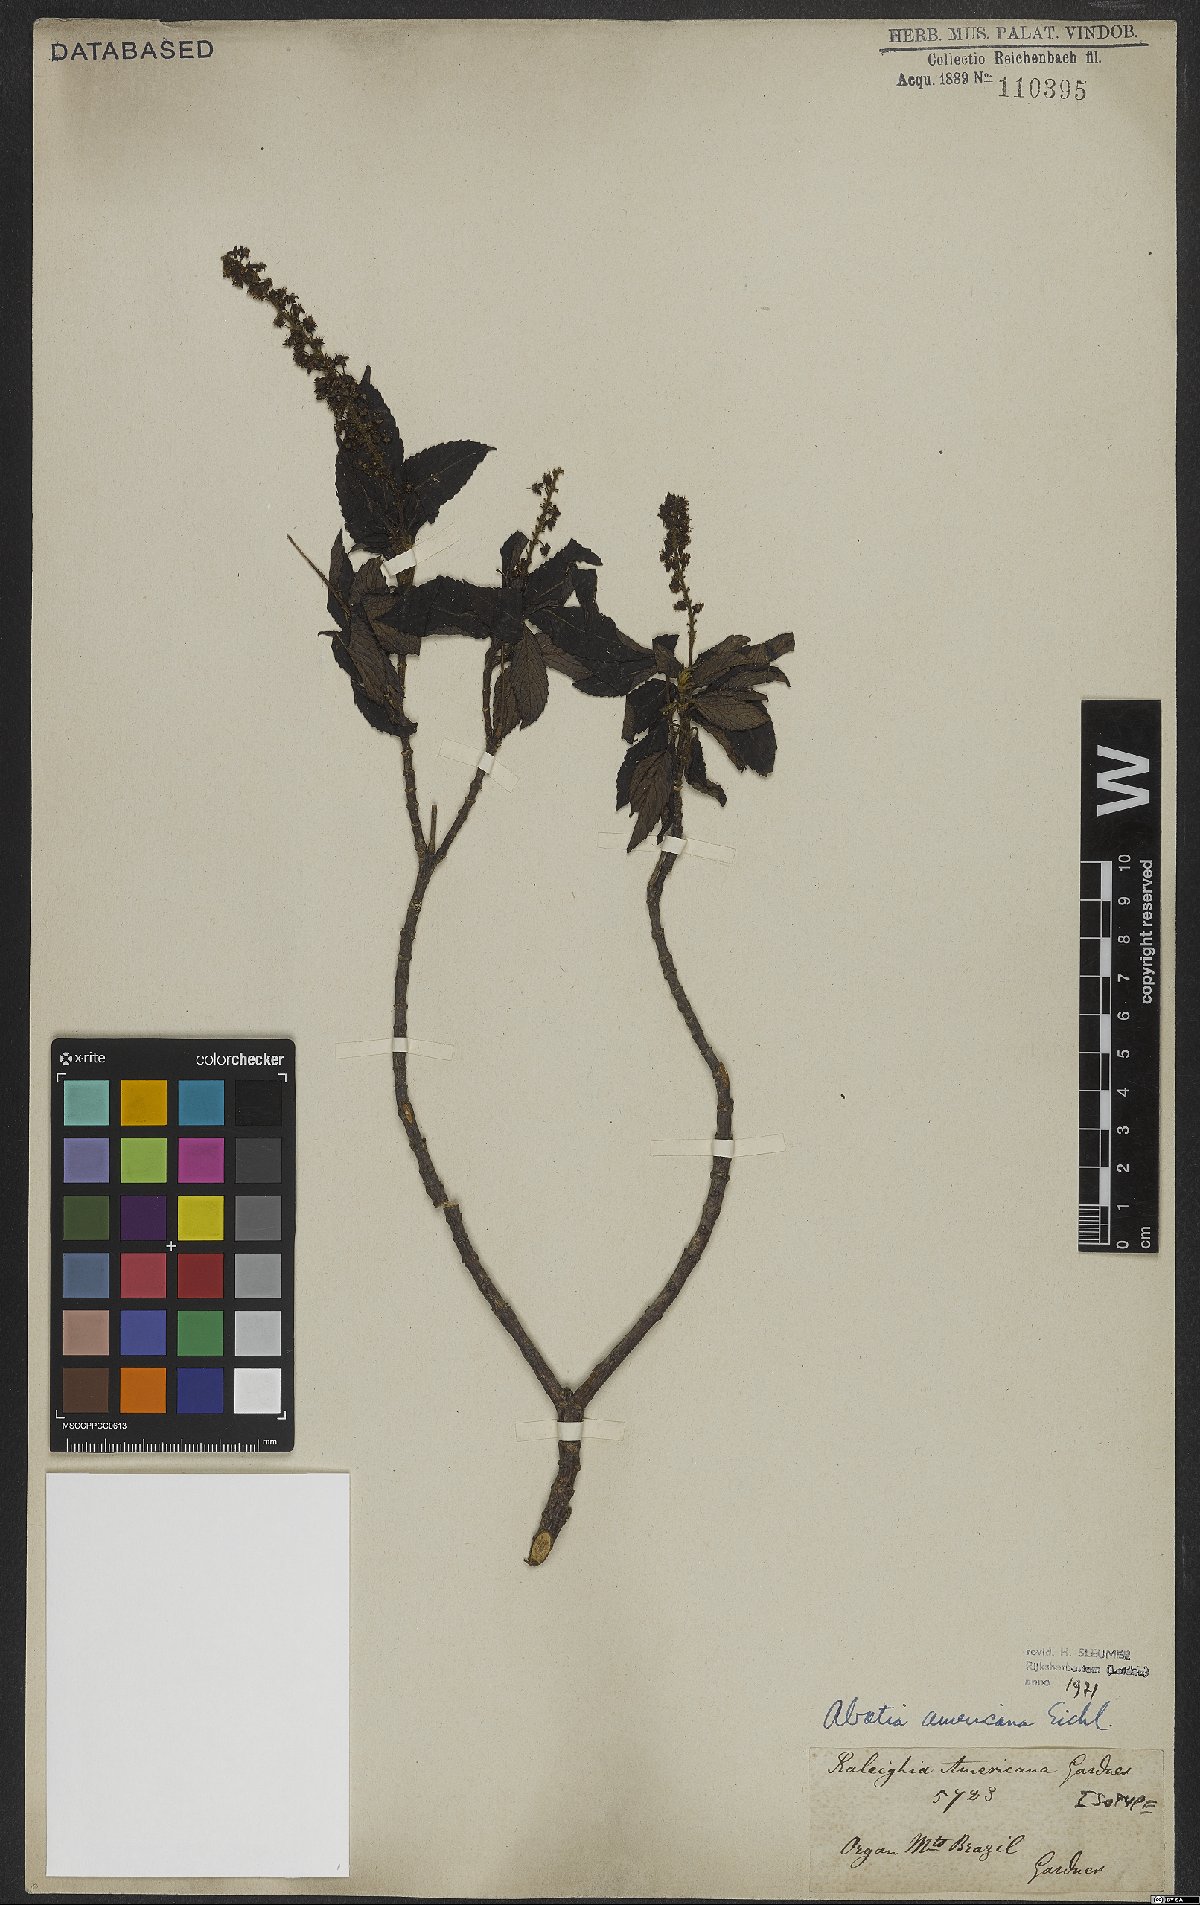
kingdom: Plantae
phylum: Tracheophyta
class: Magnoliopsida
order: Malpighiales
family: Salicaceae
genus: Abatia
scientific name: Abatia americana
